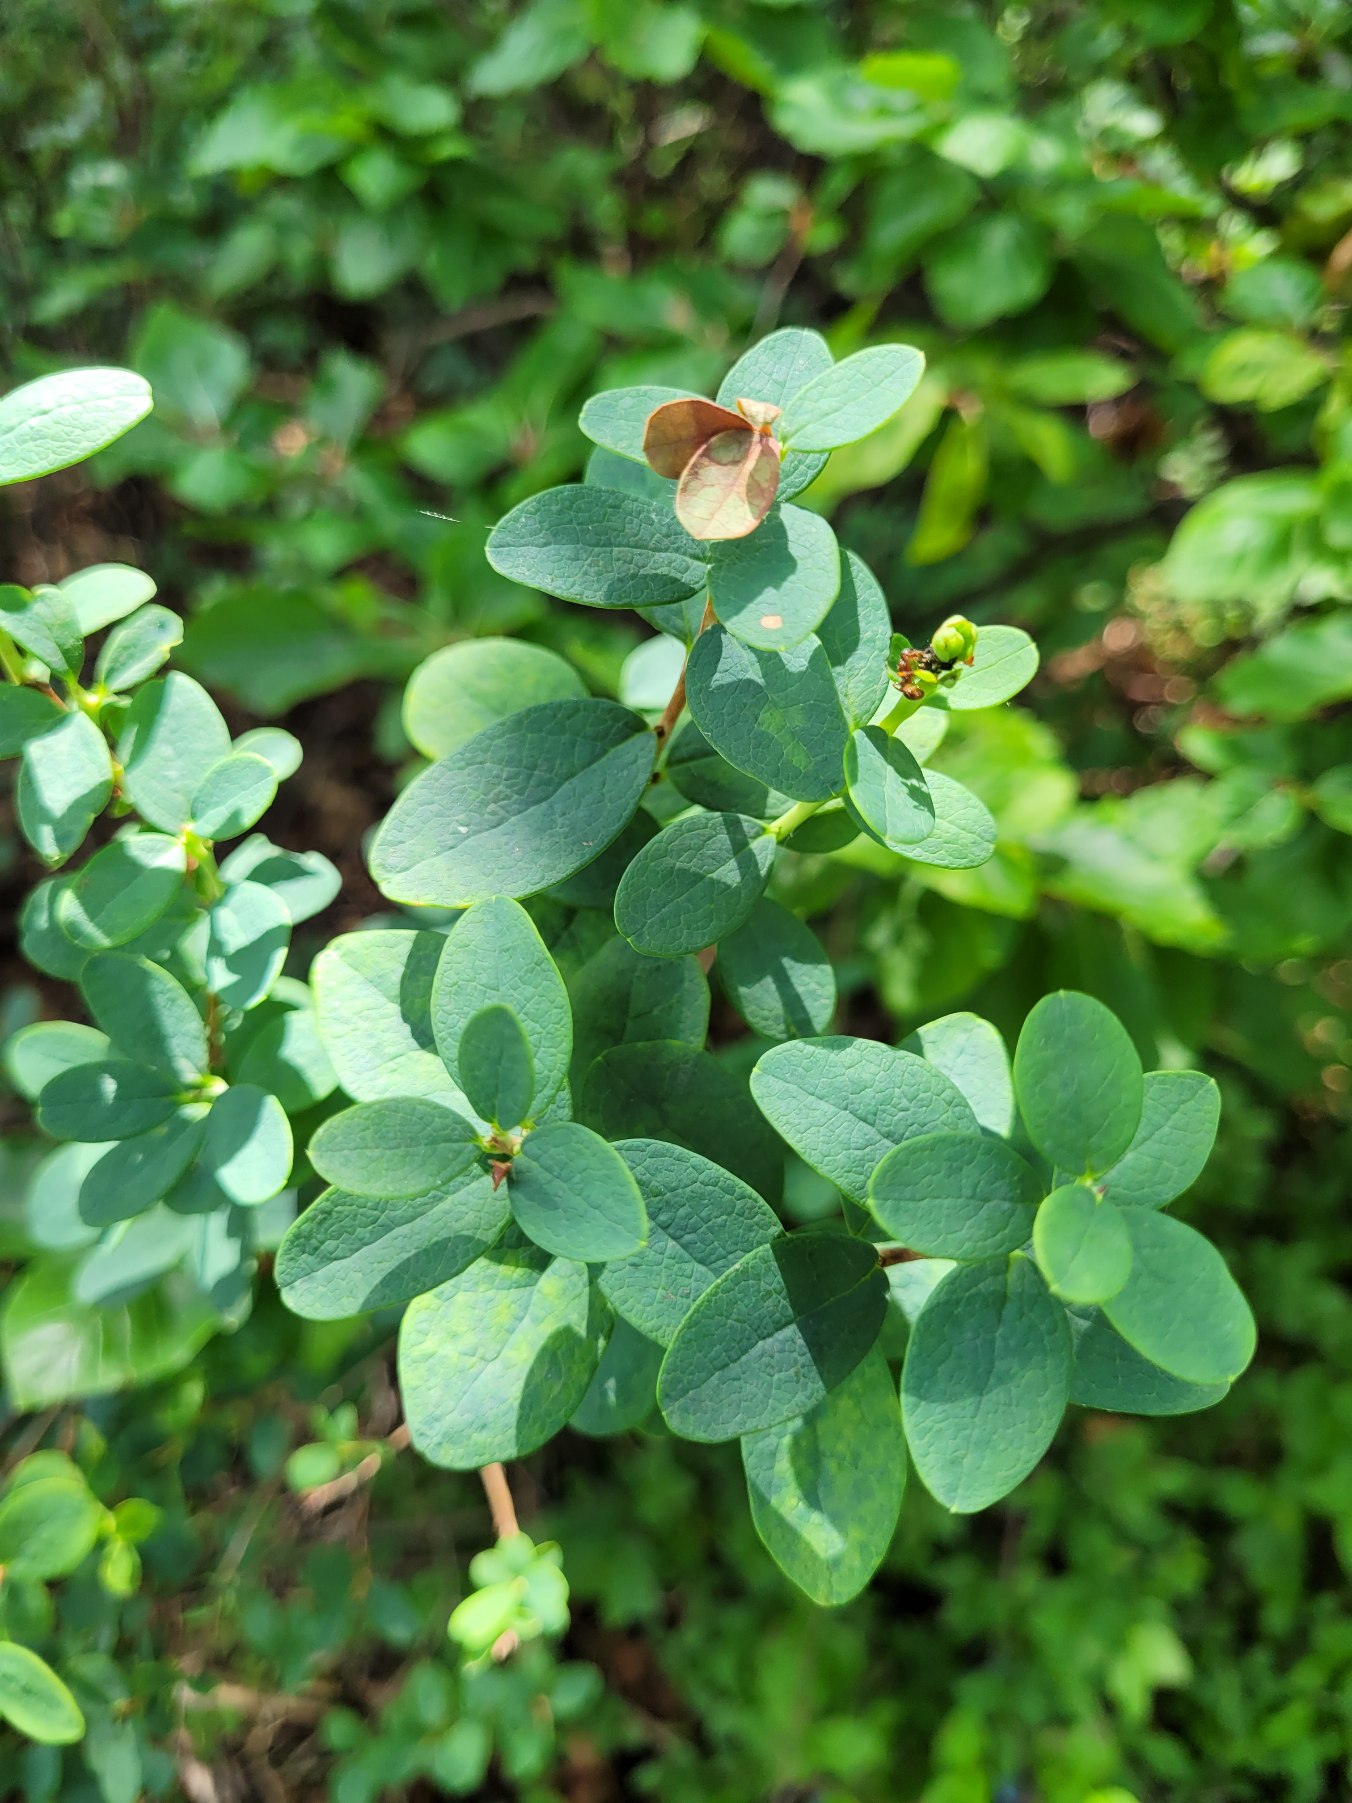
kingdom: Plantae
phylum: Tracheophyta
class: Magnoliopsida
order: Ericales
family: Ericaceae
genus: Vaccinium
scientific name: Vaccinium uliginosum
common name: Mose-bølle
